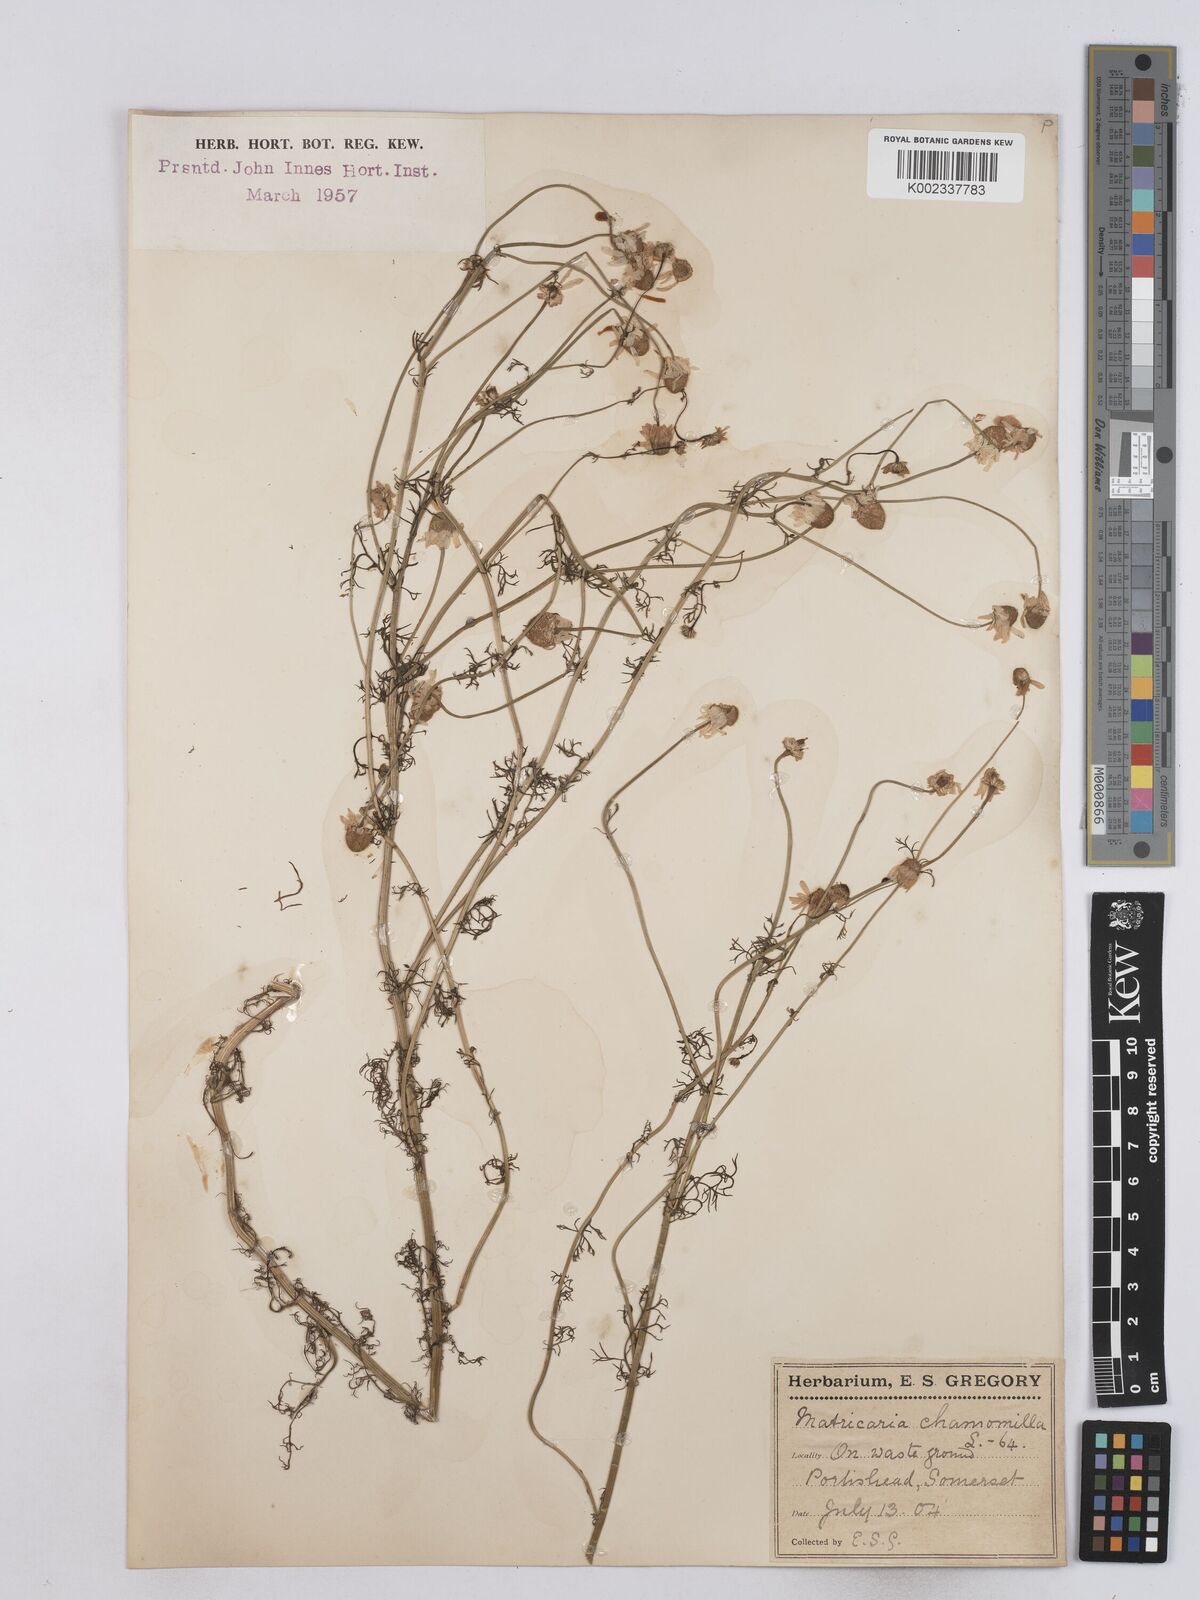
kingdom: Plantae
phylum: Tracheophyta
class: Magnoliopsida
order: Asterales
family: Asteraceae
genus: Matricaria
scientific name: Matricaria chamomilla
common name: Scented mayweed
